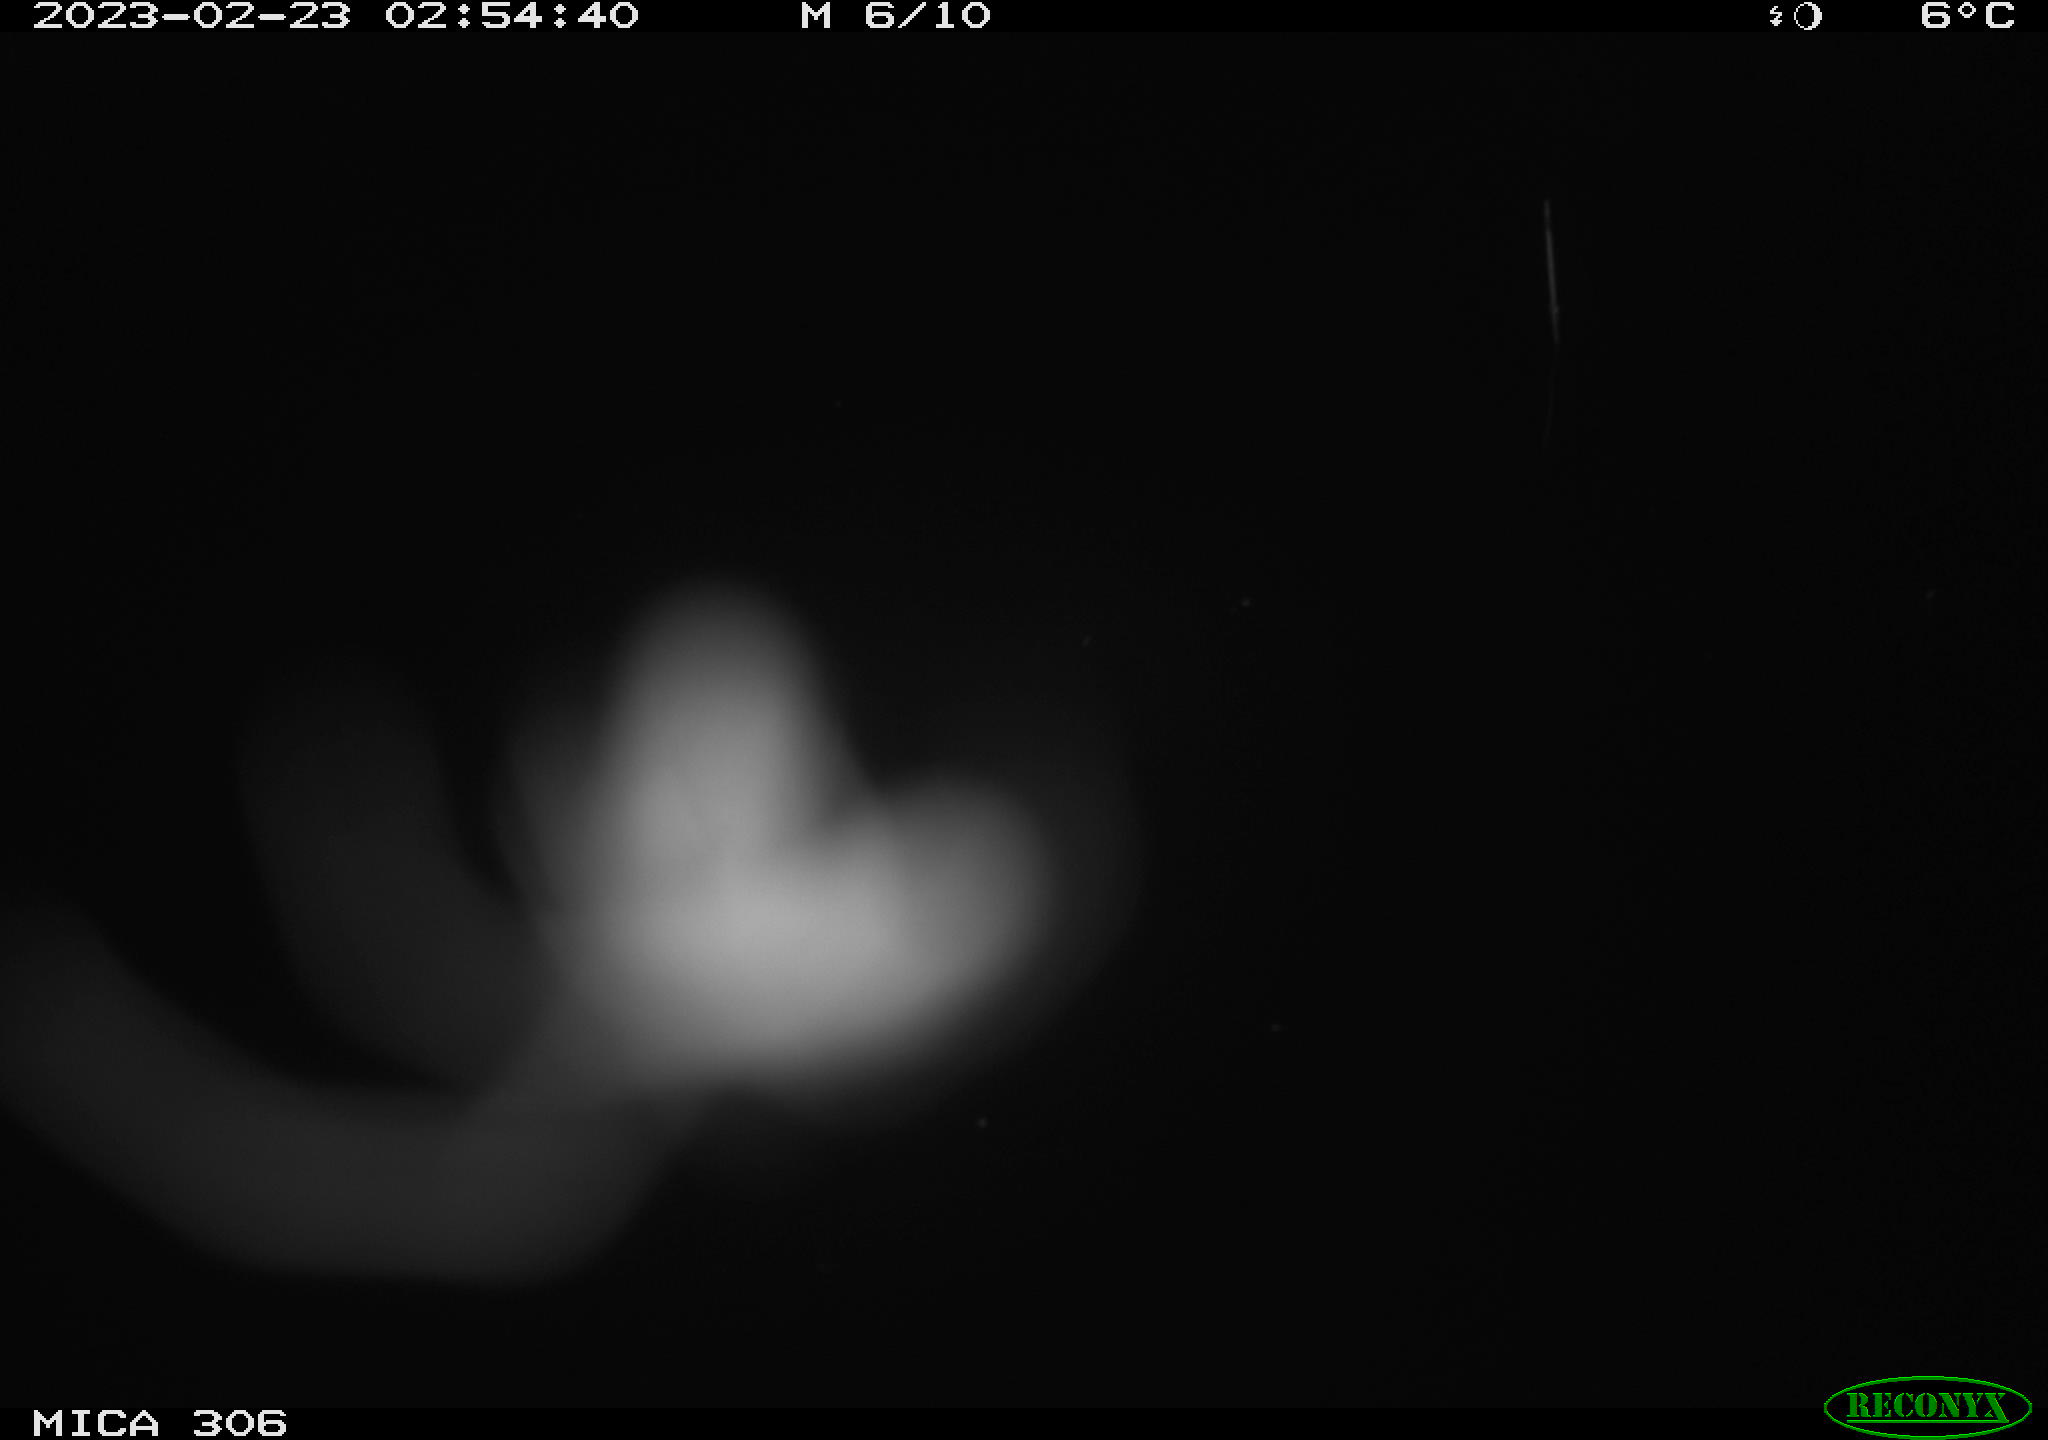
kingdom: Animalia
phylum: Chordata
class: Mammalia
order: Rodentia
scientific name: Rodentia
